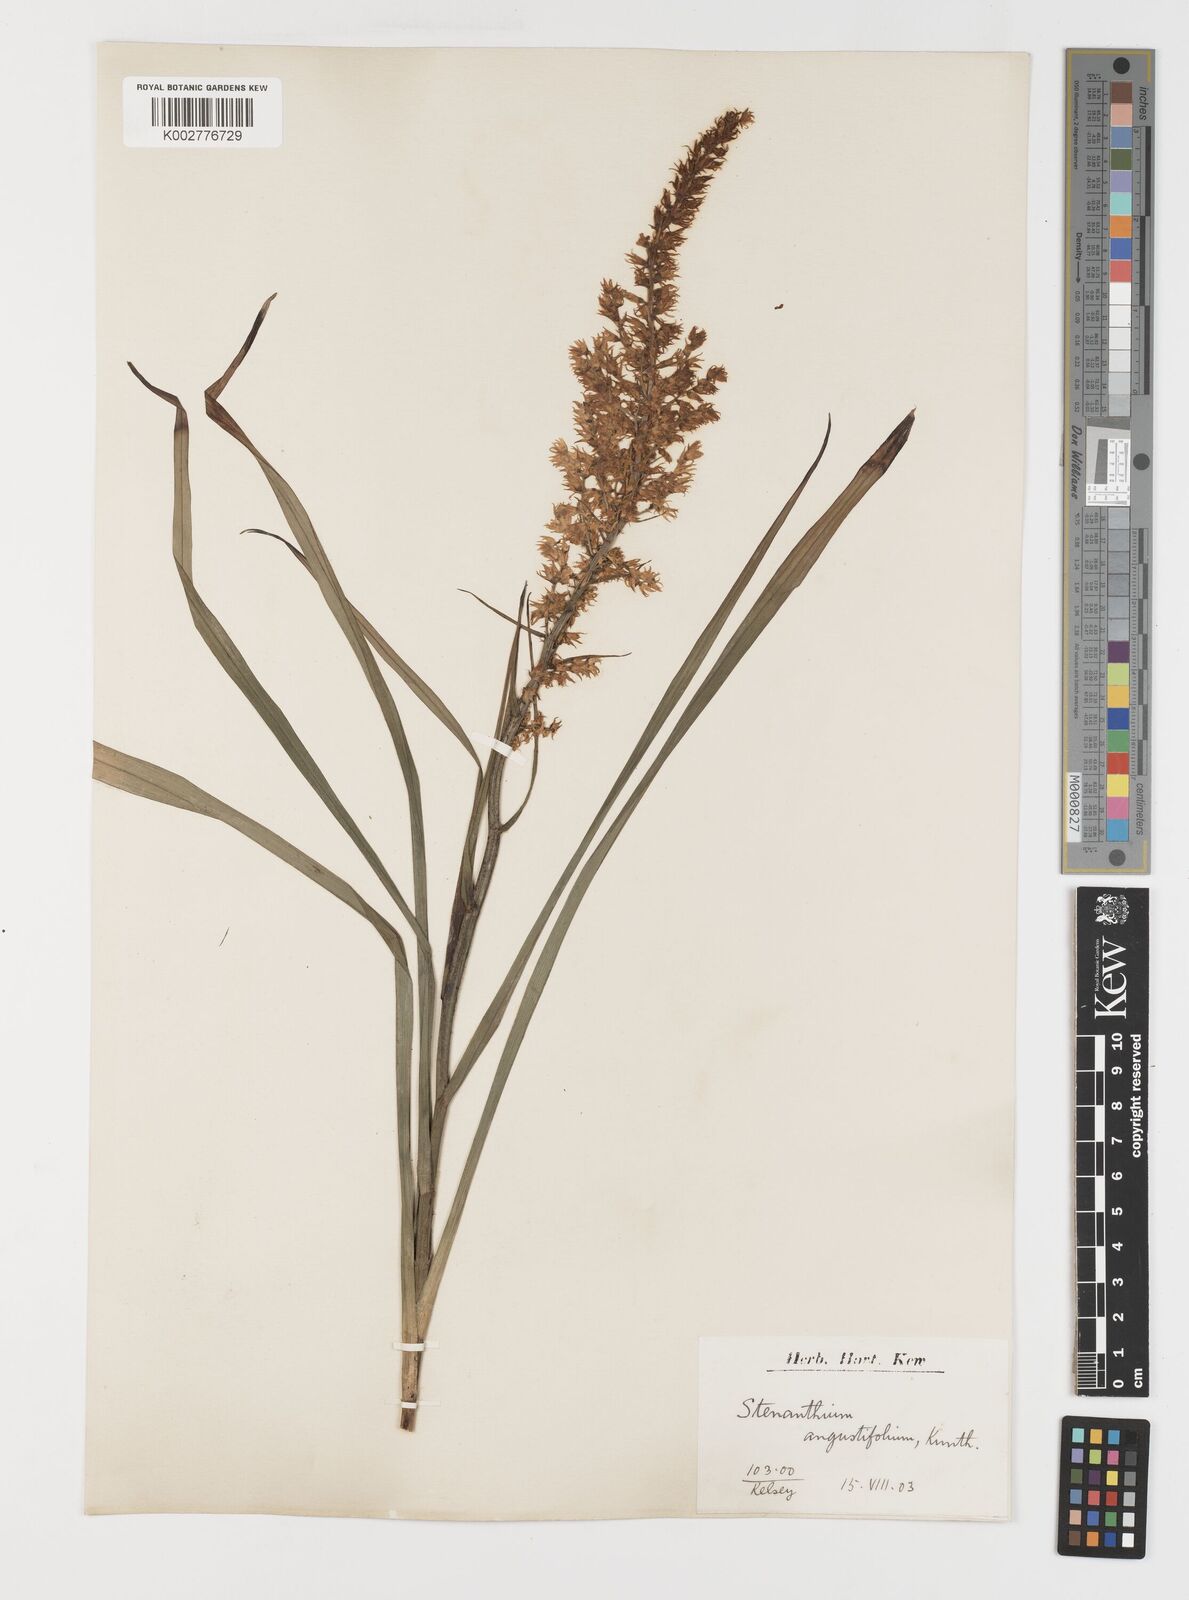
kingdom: Plantae
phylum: Tracheophyta
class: Liliopsida
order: Liliales
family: Melanthiaceae
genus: Stenanthium
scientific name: Stenanthium gramineum
